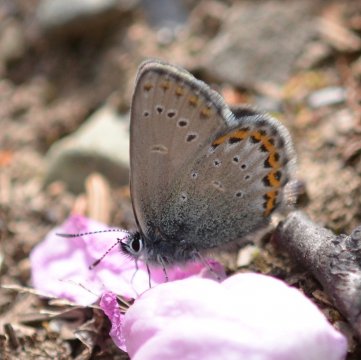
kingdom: Animalia
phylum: Arthropoda
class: Insecta
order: Lepidoptera
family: Lycaenidae
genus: Lycaeides
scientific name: Lycaeides idas
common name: Northern Blue
